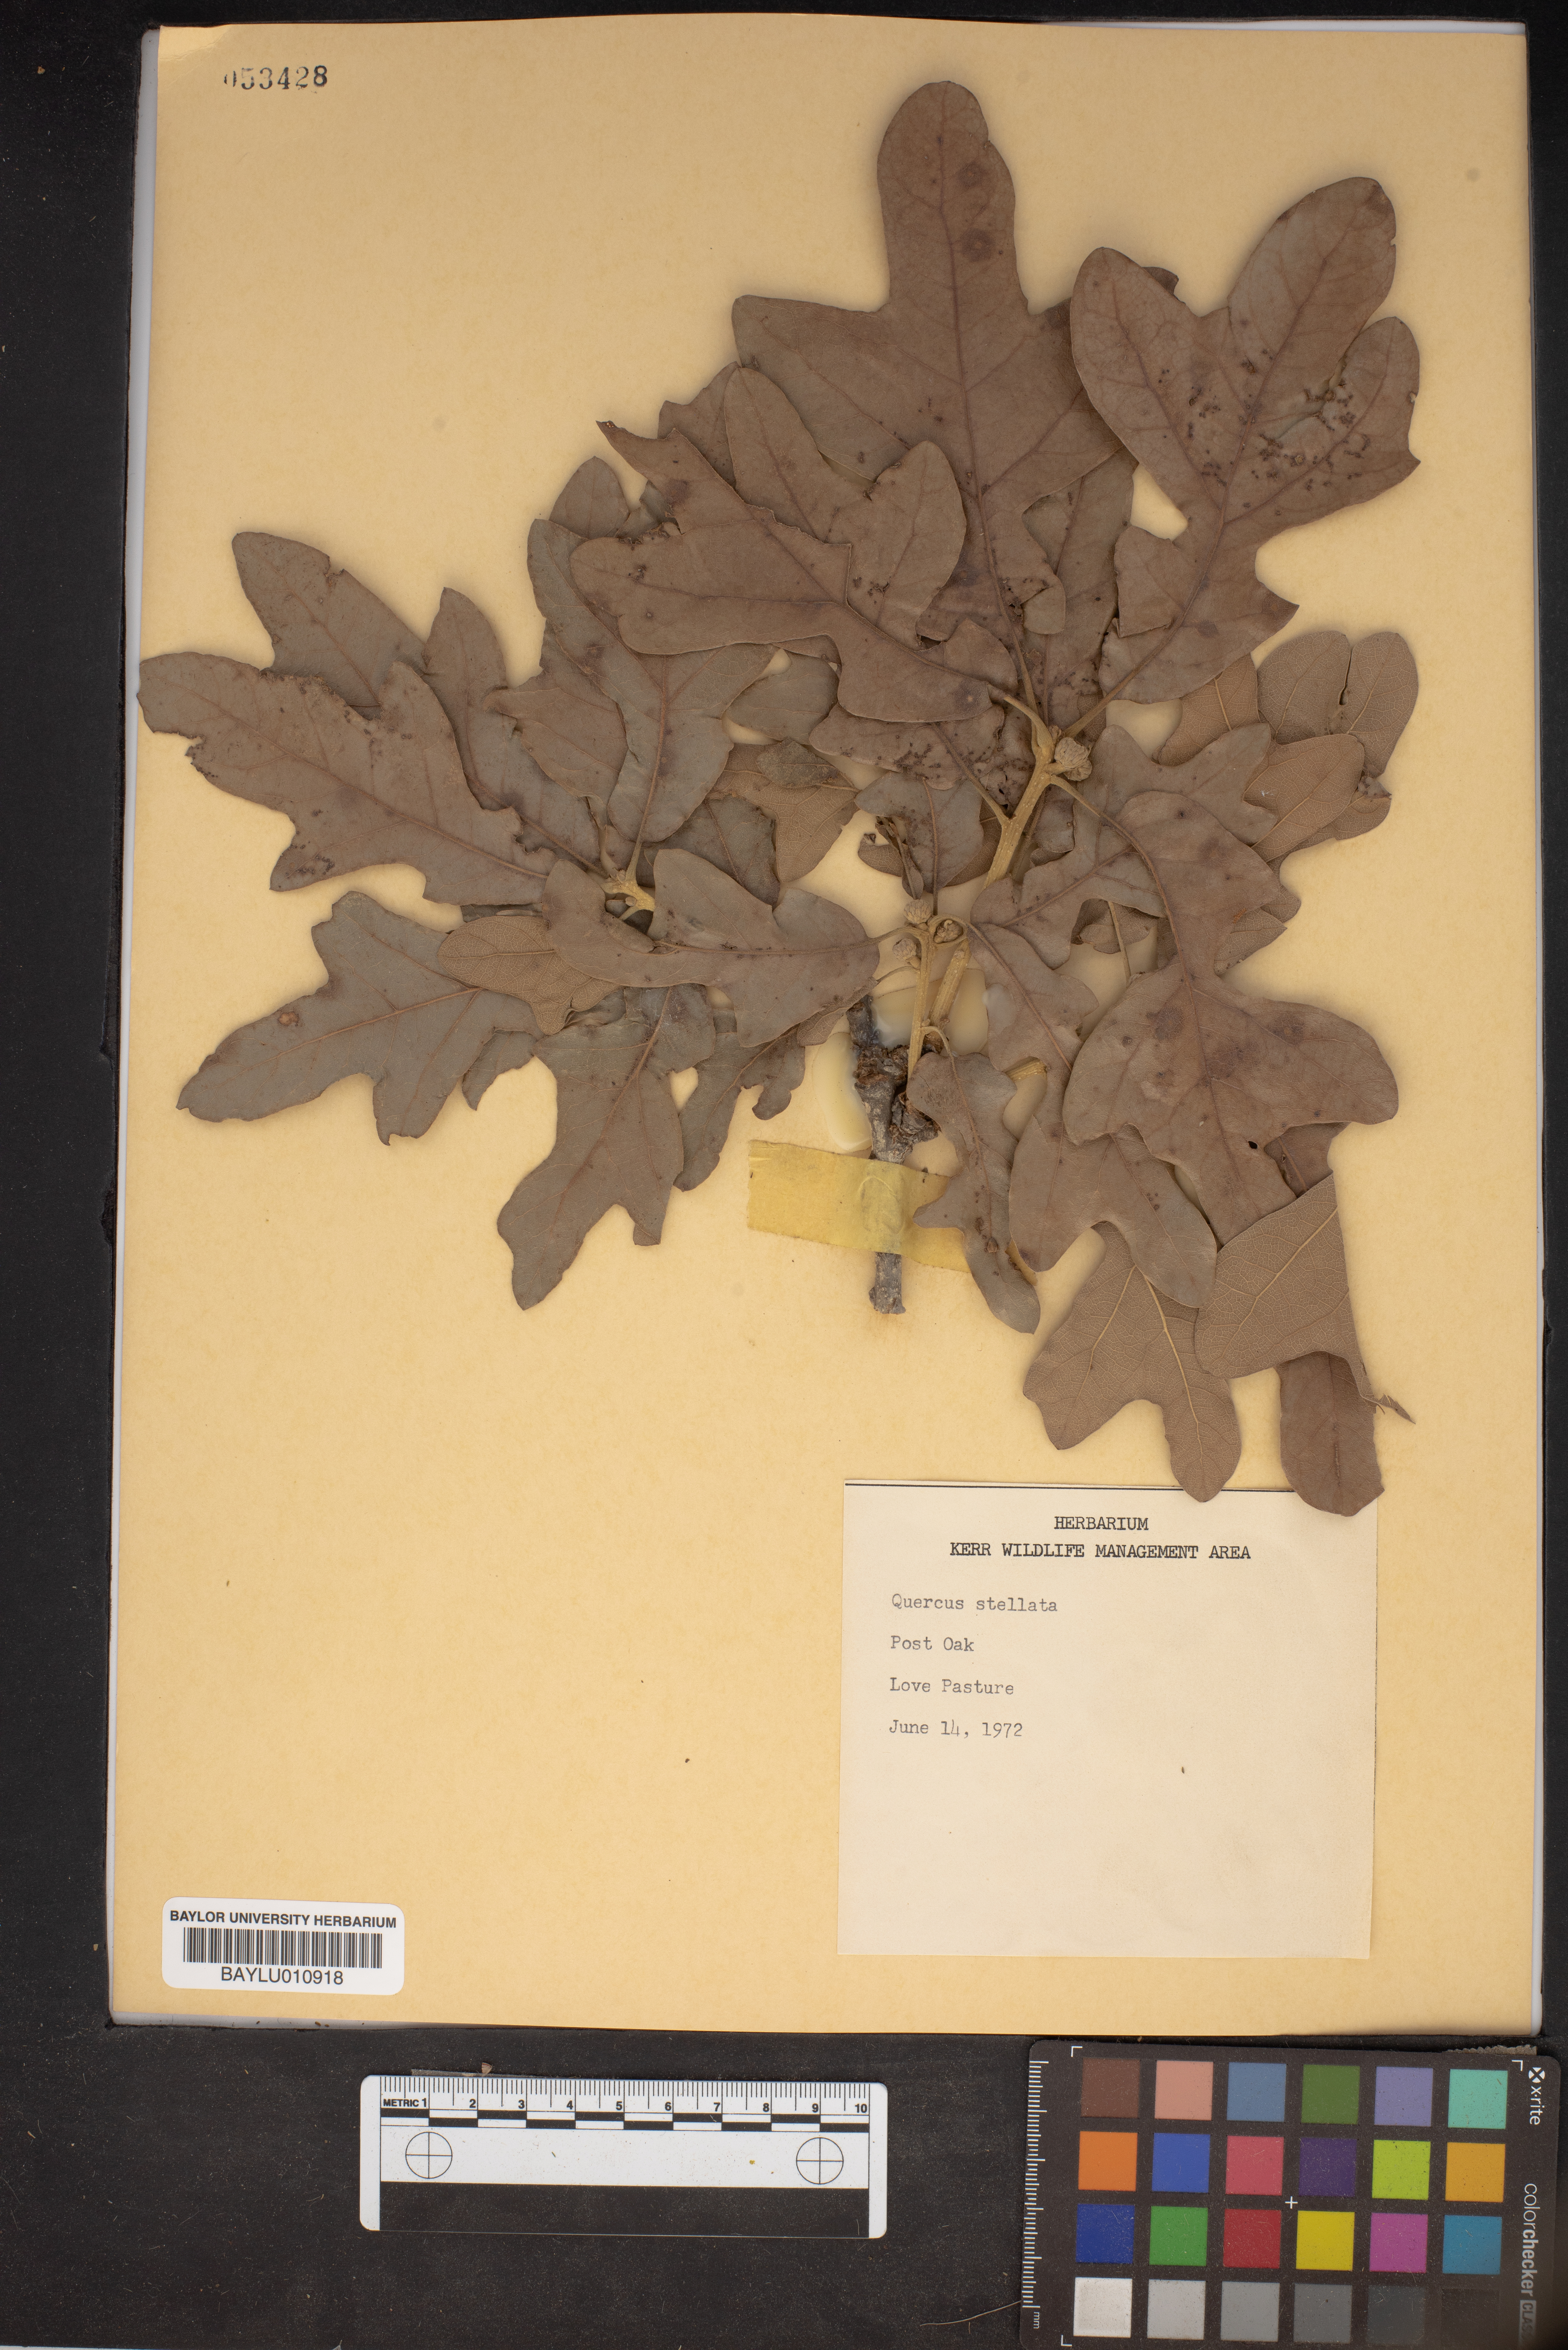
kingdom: Plantae
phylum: Tracheophyta
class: Magnoliopsida
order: Fagales
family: Fagaceae
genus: Quercus
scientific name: Quercus stellata
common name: Post oak
